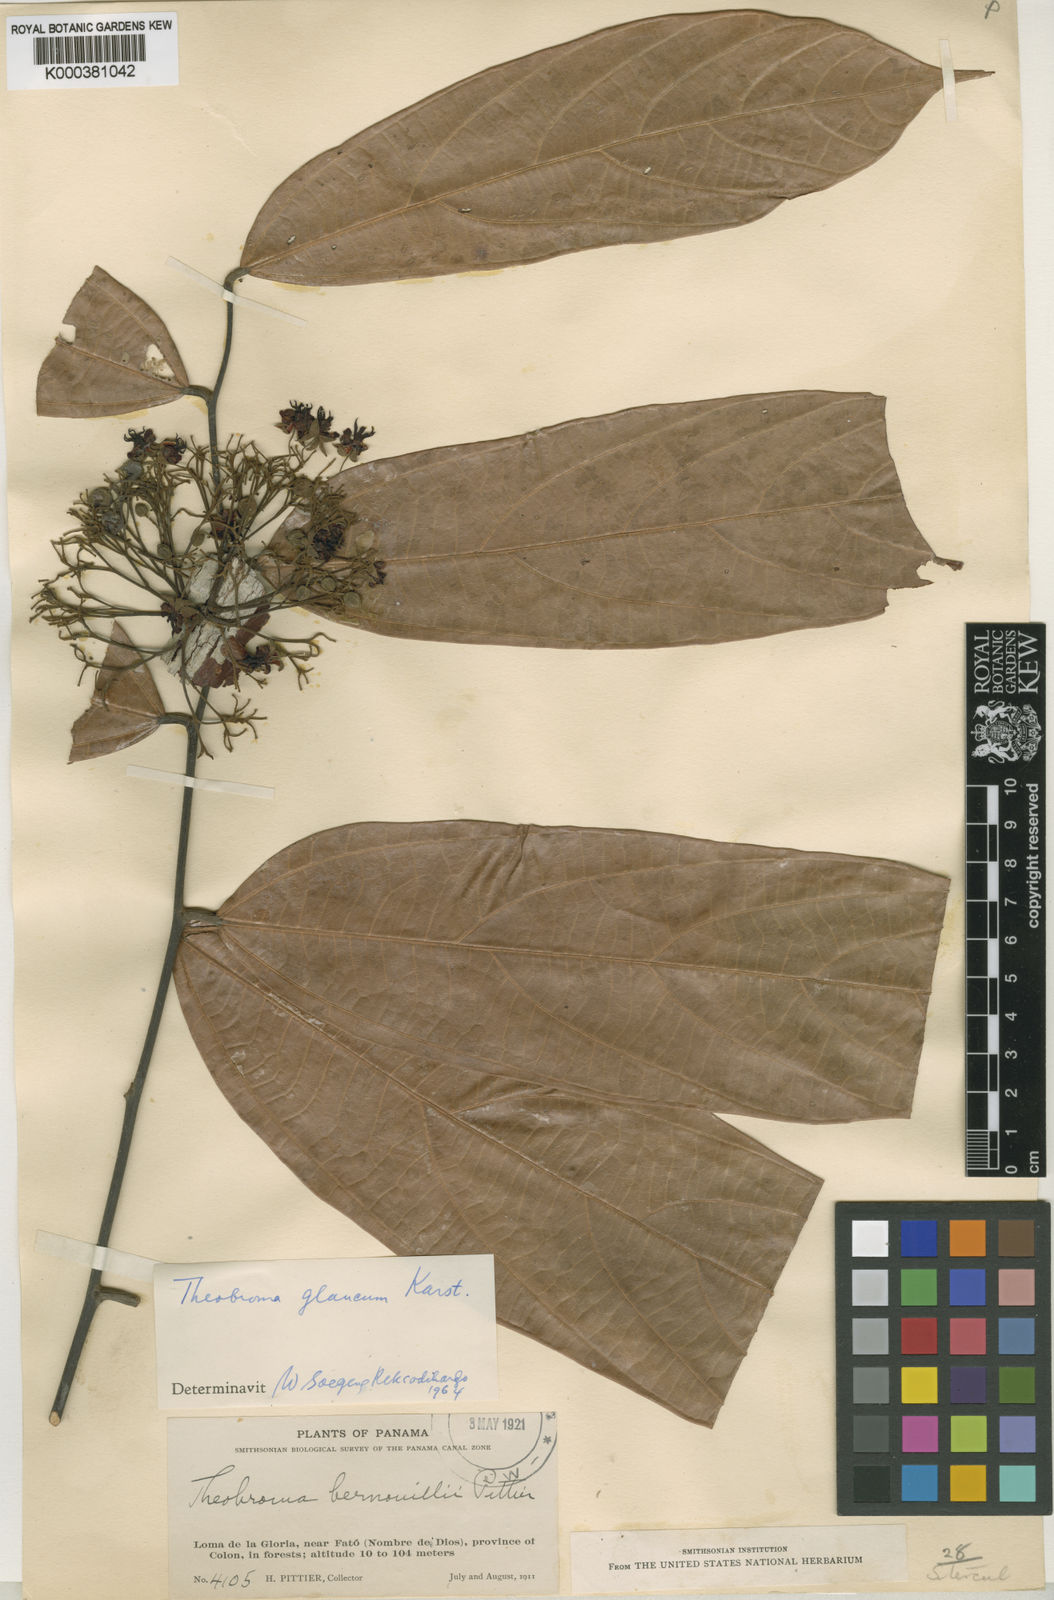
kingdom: Plantae
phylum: Tracheophyta
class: Magnoliopsida
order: Malvales
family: Malvaceae
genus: Theobroma
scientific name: Theobroma
